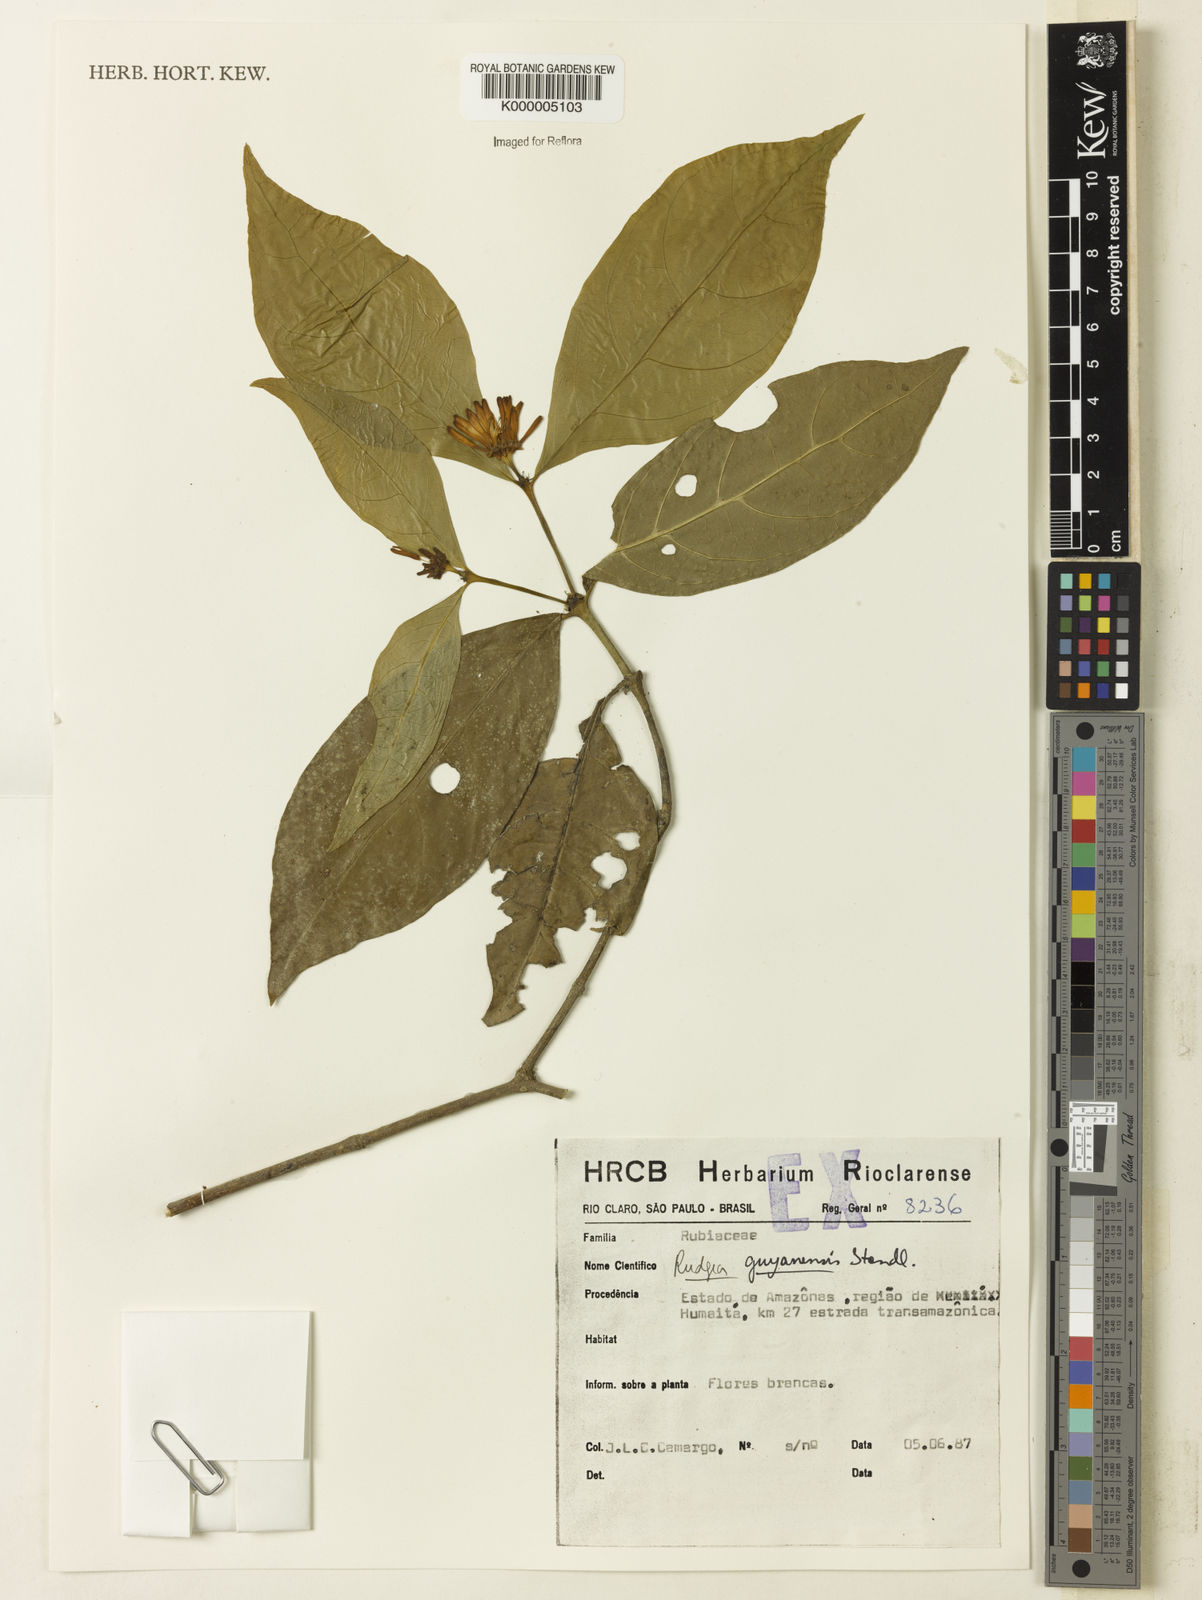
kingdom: Plantae
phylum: Tracheophyta
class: Magnoliopsida
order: Gentianales
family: Rubiaceae
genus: Rudgea
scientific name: Rudgea guianensis
